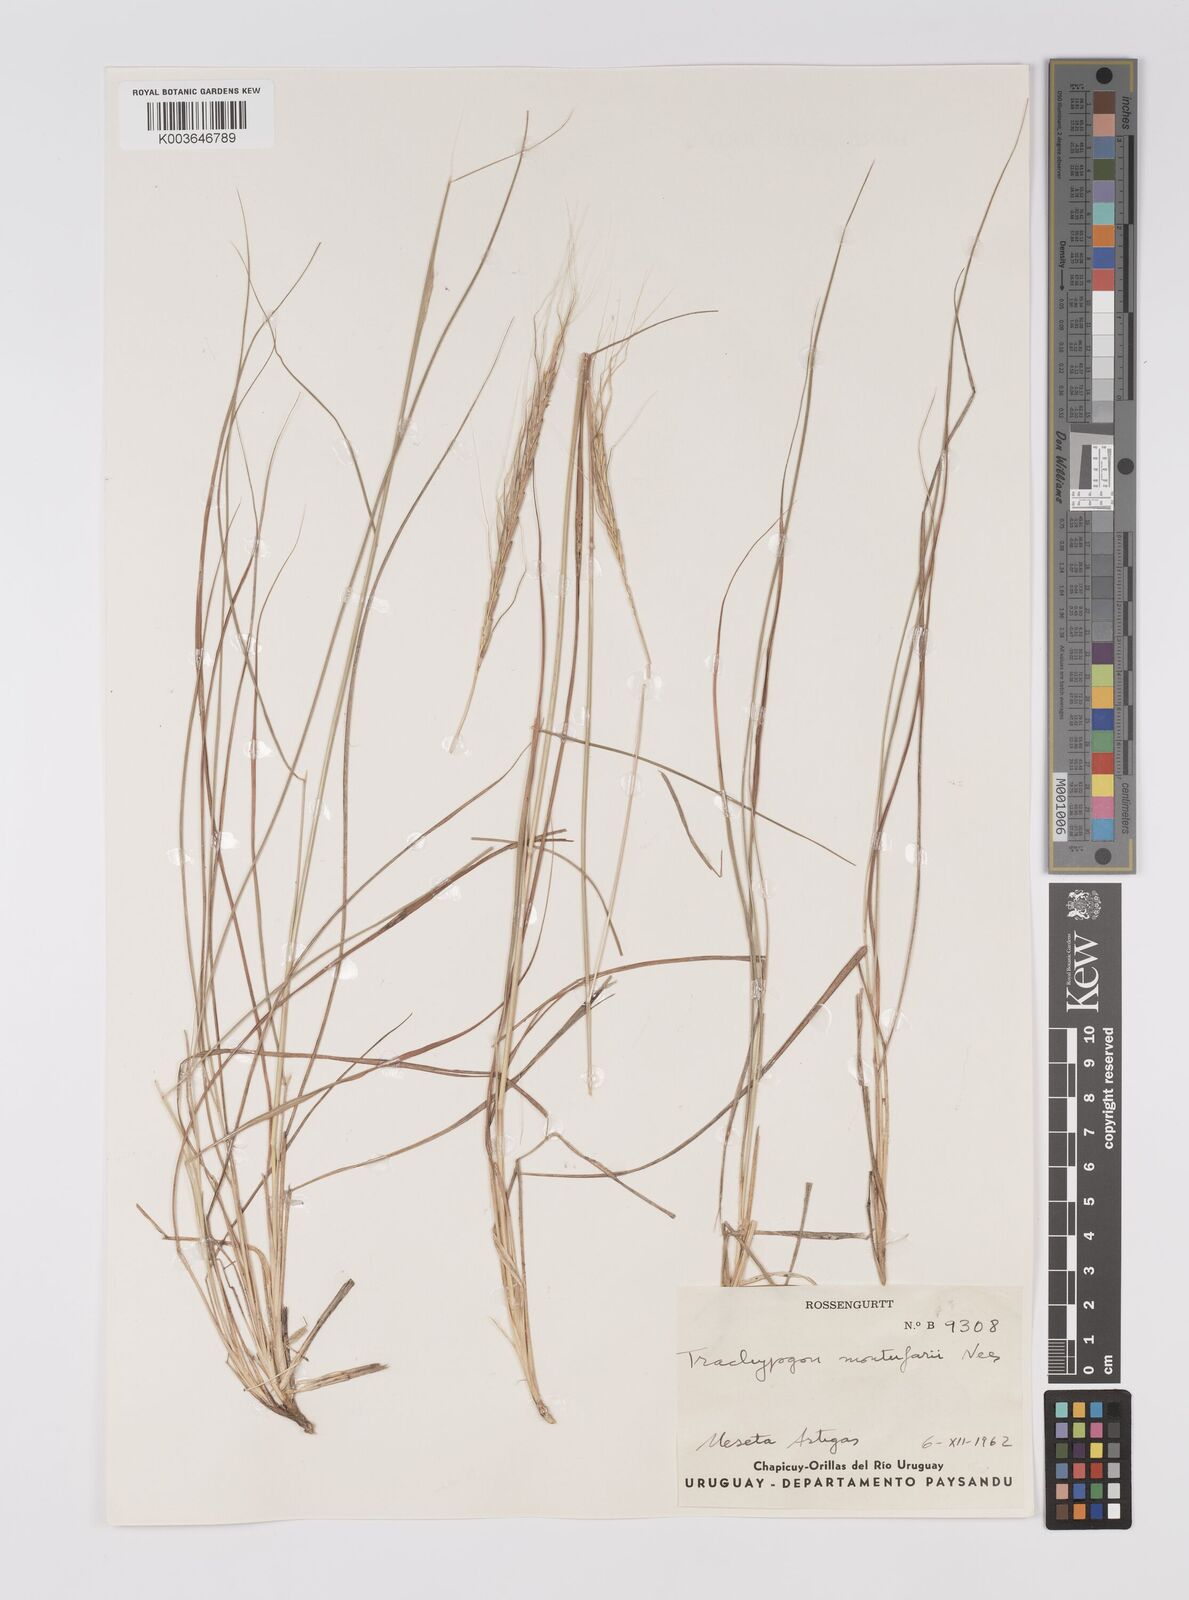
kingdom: Plantae
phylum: Tracheophyta
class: Liliopsida
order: Poales
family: Poaceae
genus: Trachypogon
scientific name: Trachypogon spicatus
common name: Crinkle-awn
